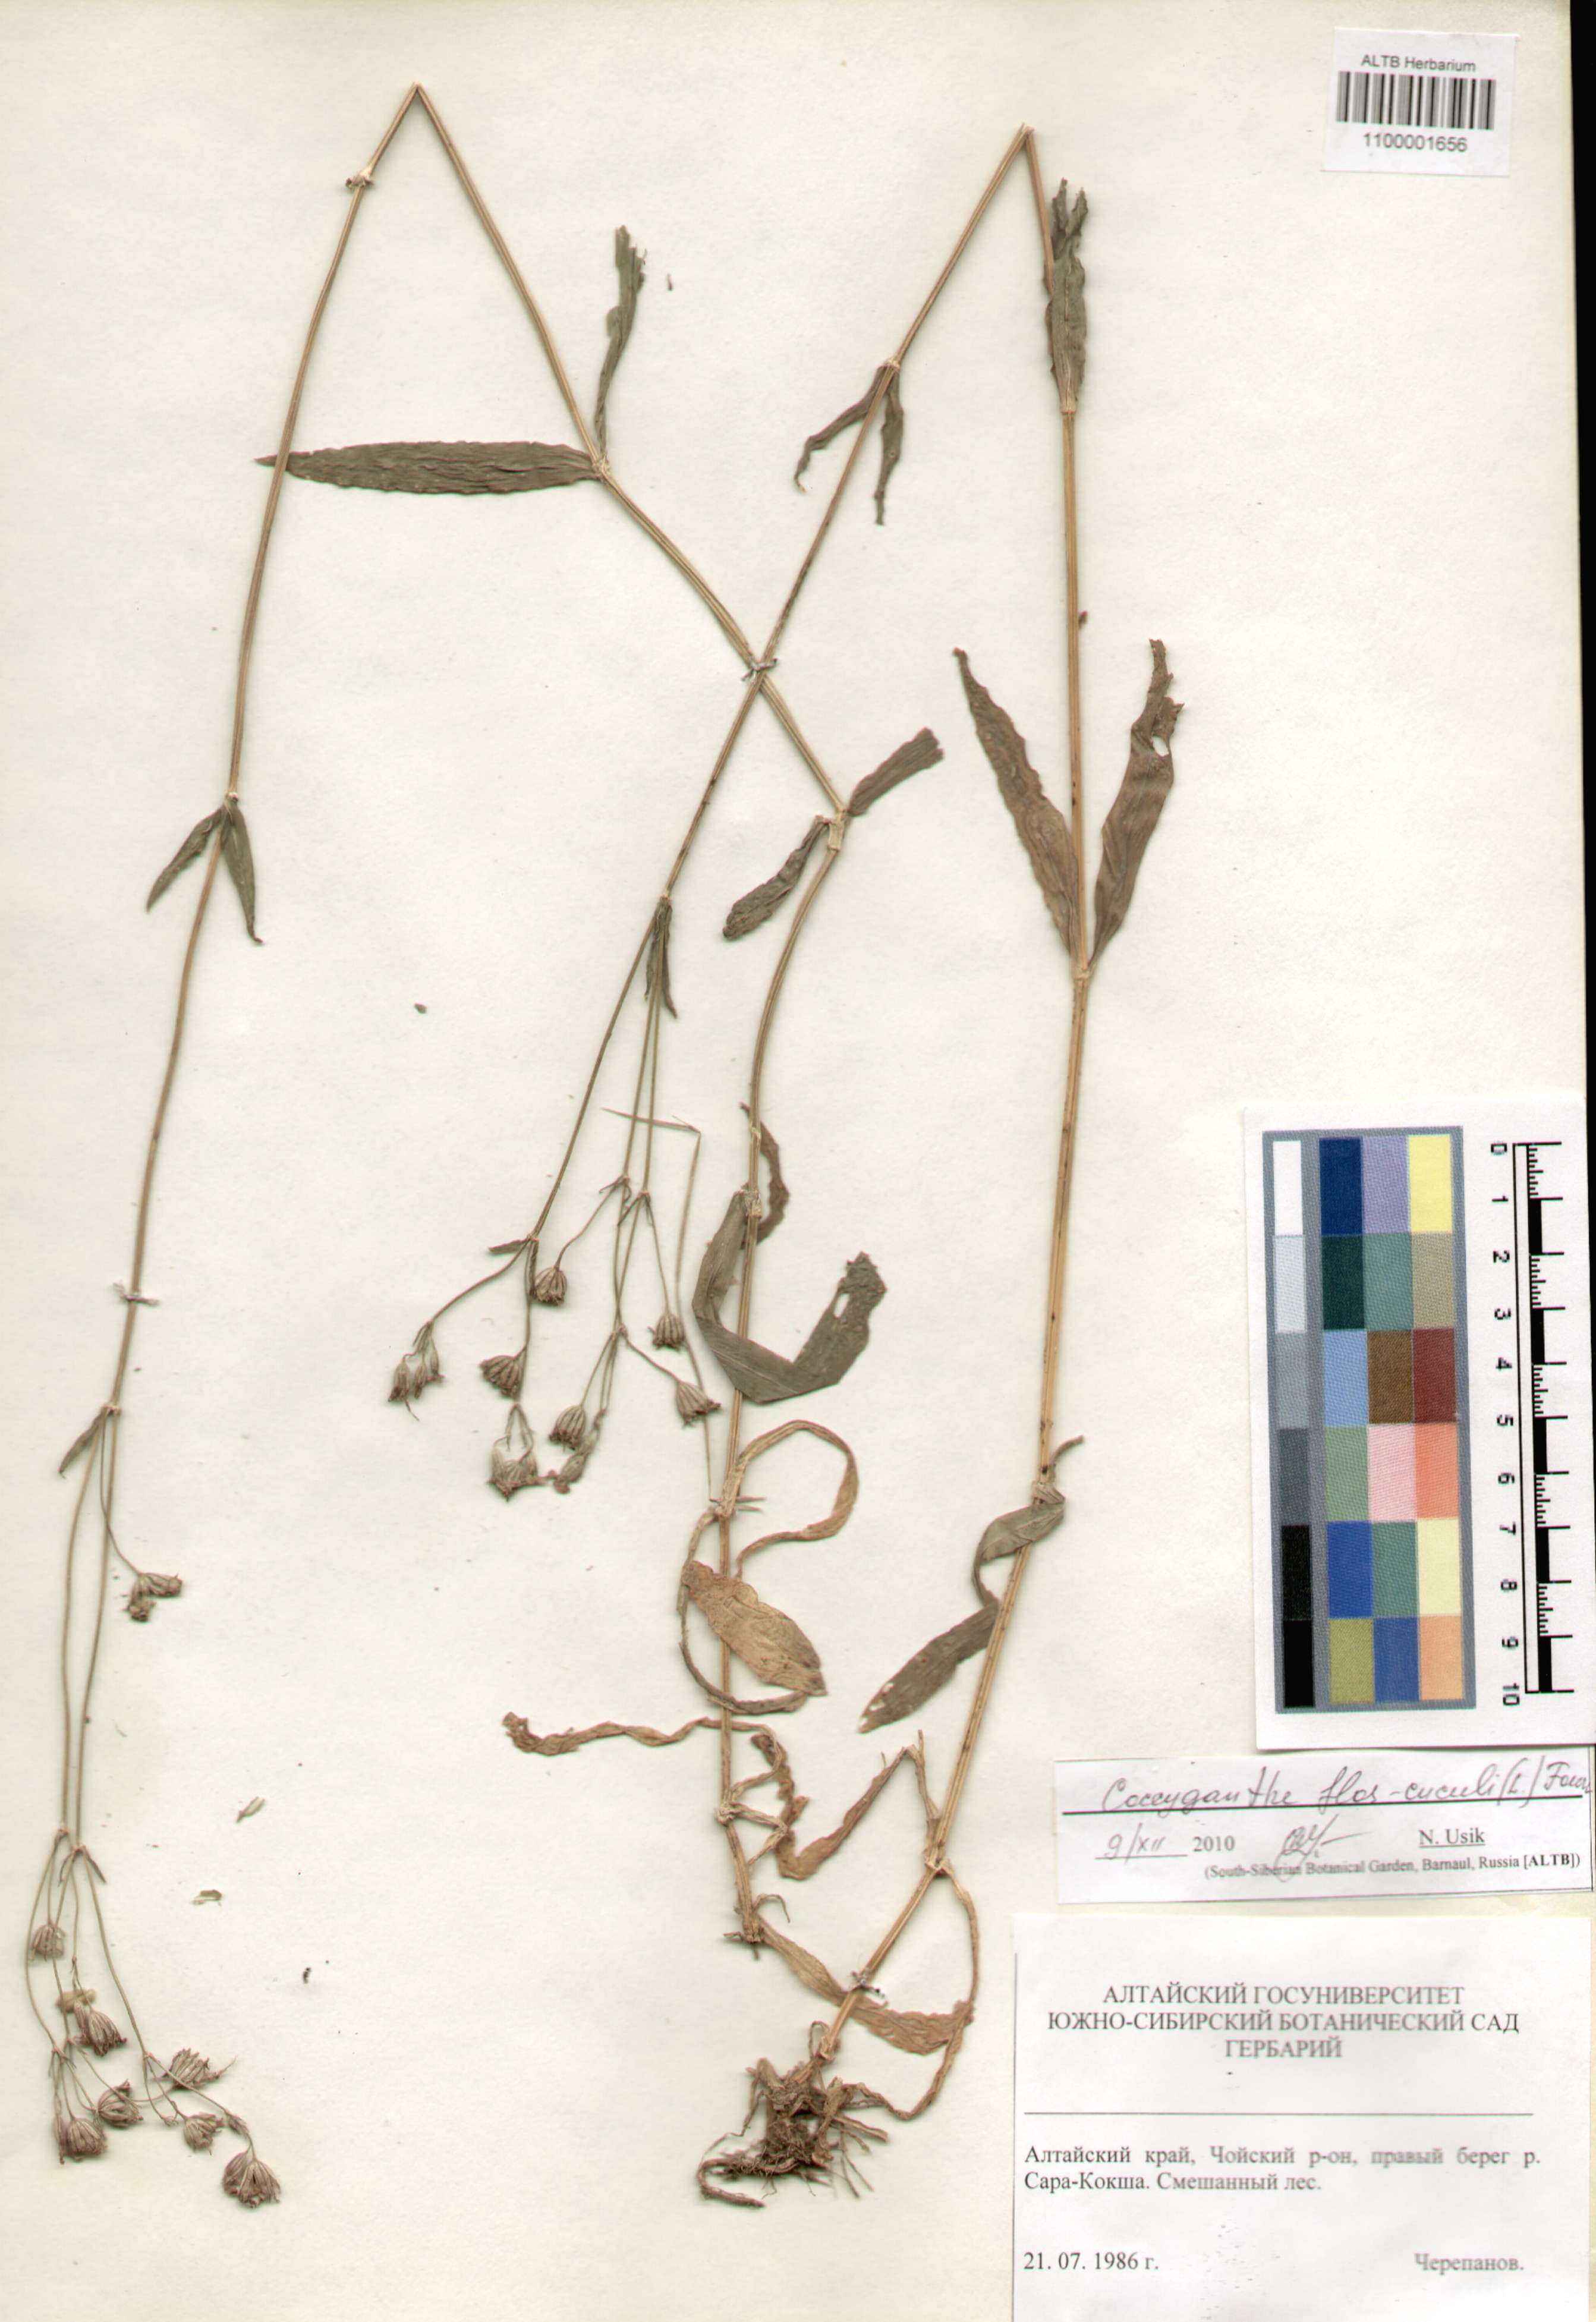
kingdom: Plantae
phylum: Tracheophyta
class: Magnoliopsida
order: Caryophyllales
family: Caryophyllaceae
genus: Silene
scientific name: Silene flos-cuculi
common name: Ragged-robin
